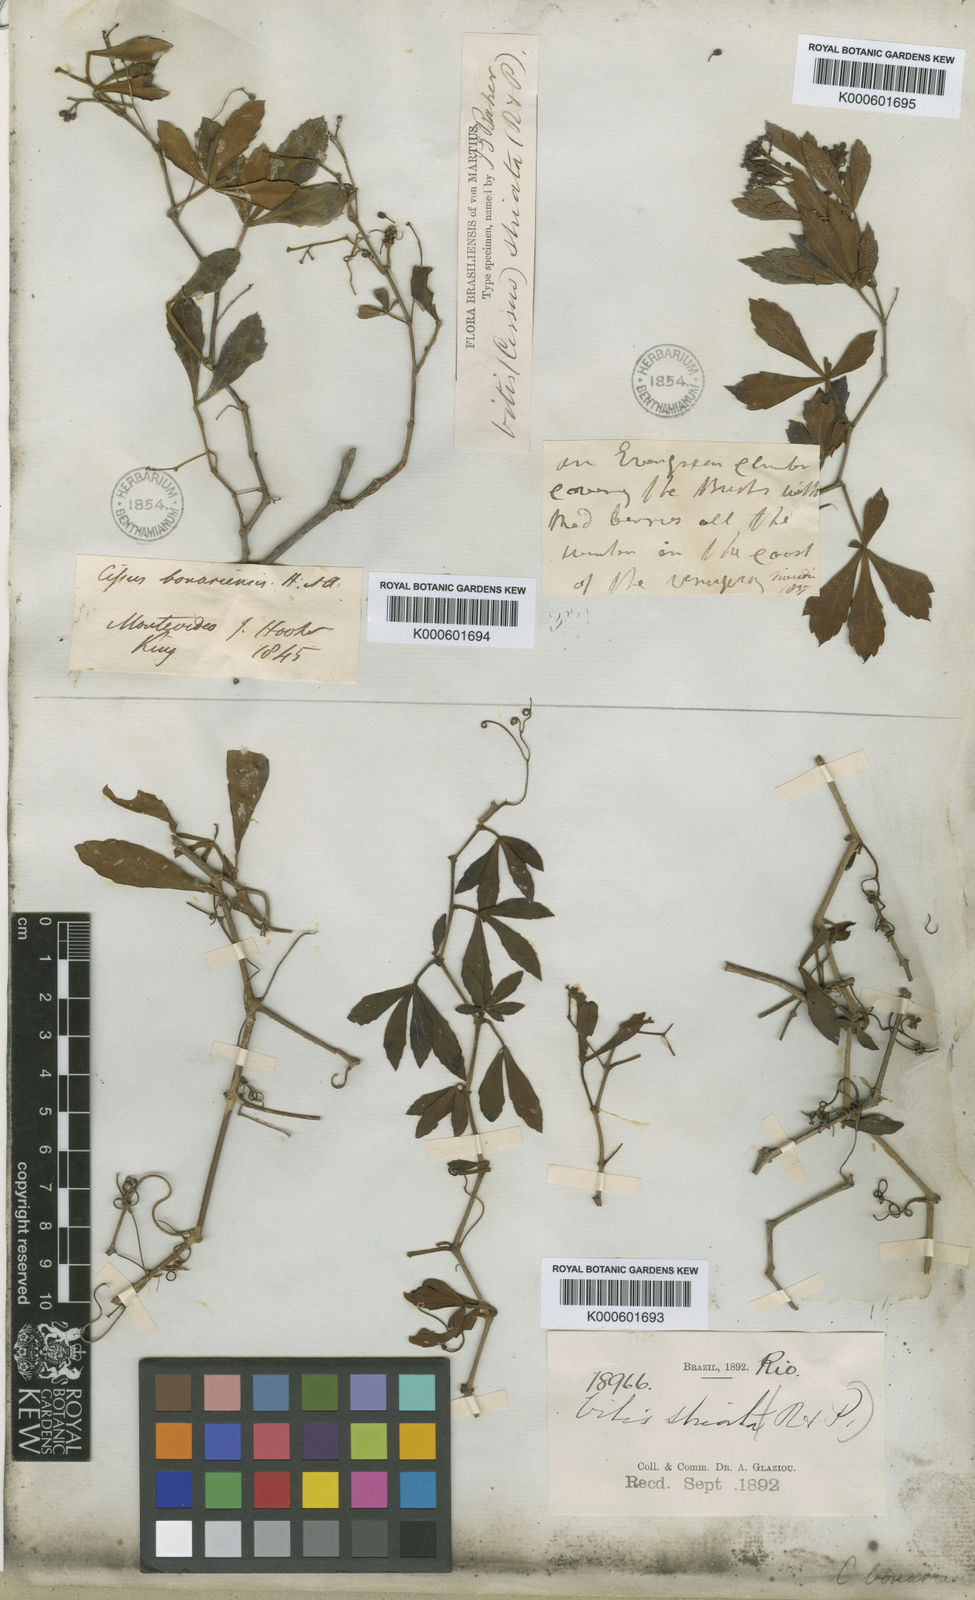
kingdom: Plantae
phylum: Tracheophyta
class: Magnoliopsida
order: Vitales
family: Vitaceae
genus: Clematicissus
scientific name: Clematicissus striata
